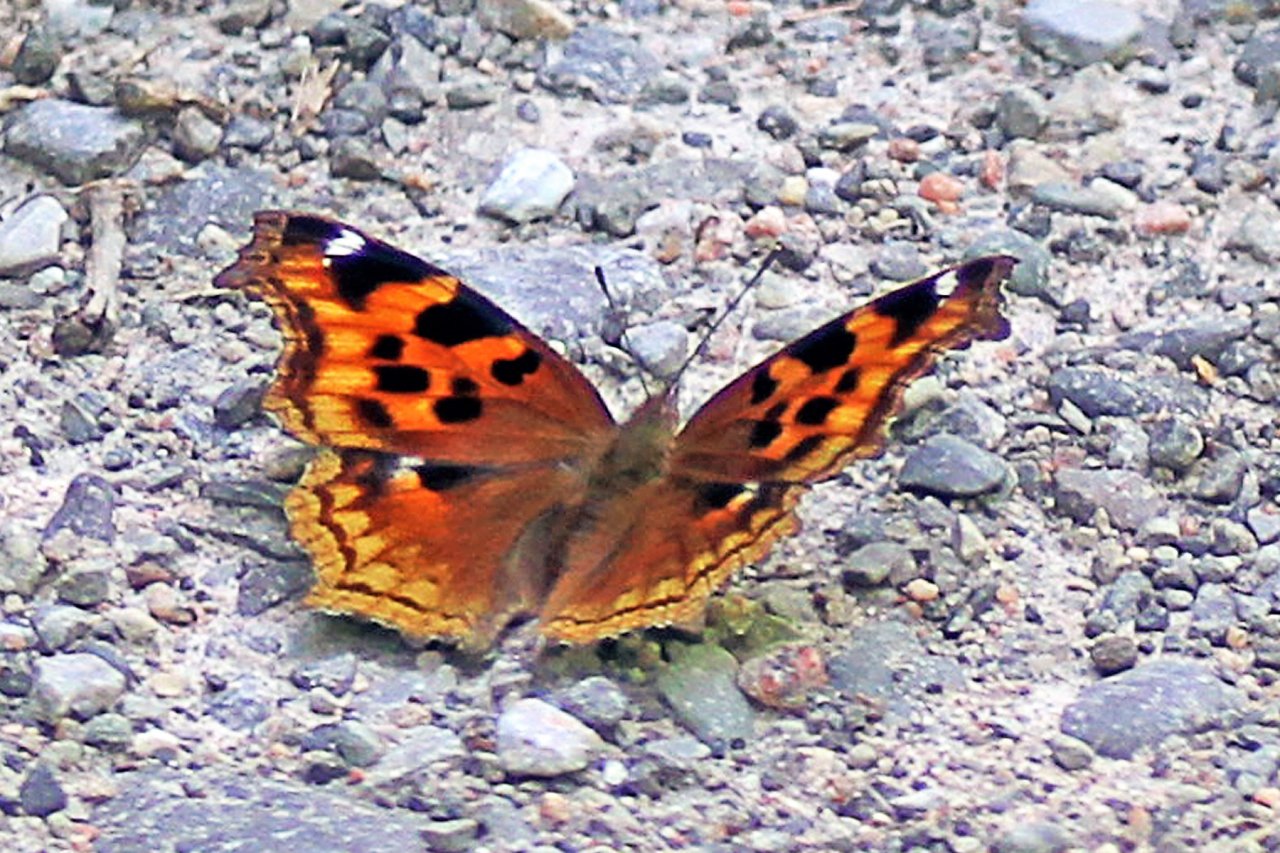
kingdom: Animalia
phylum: Arthropoda
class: Insecta
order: Lepidoptera
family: Nymphalidae
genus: Polygonia
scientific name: Polygonia vaualbum
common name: Compton Tortoiseshell
